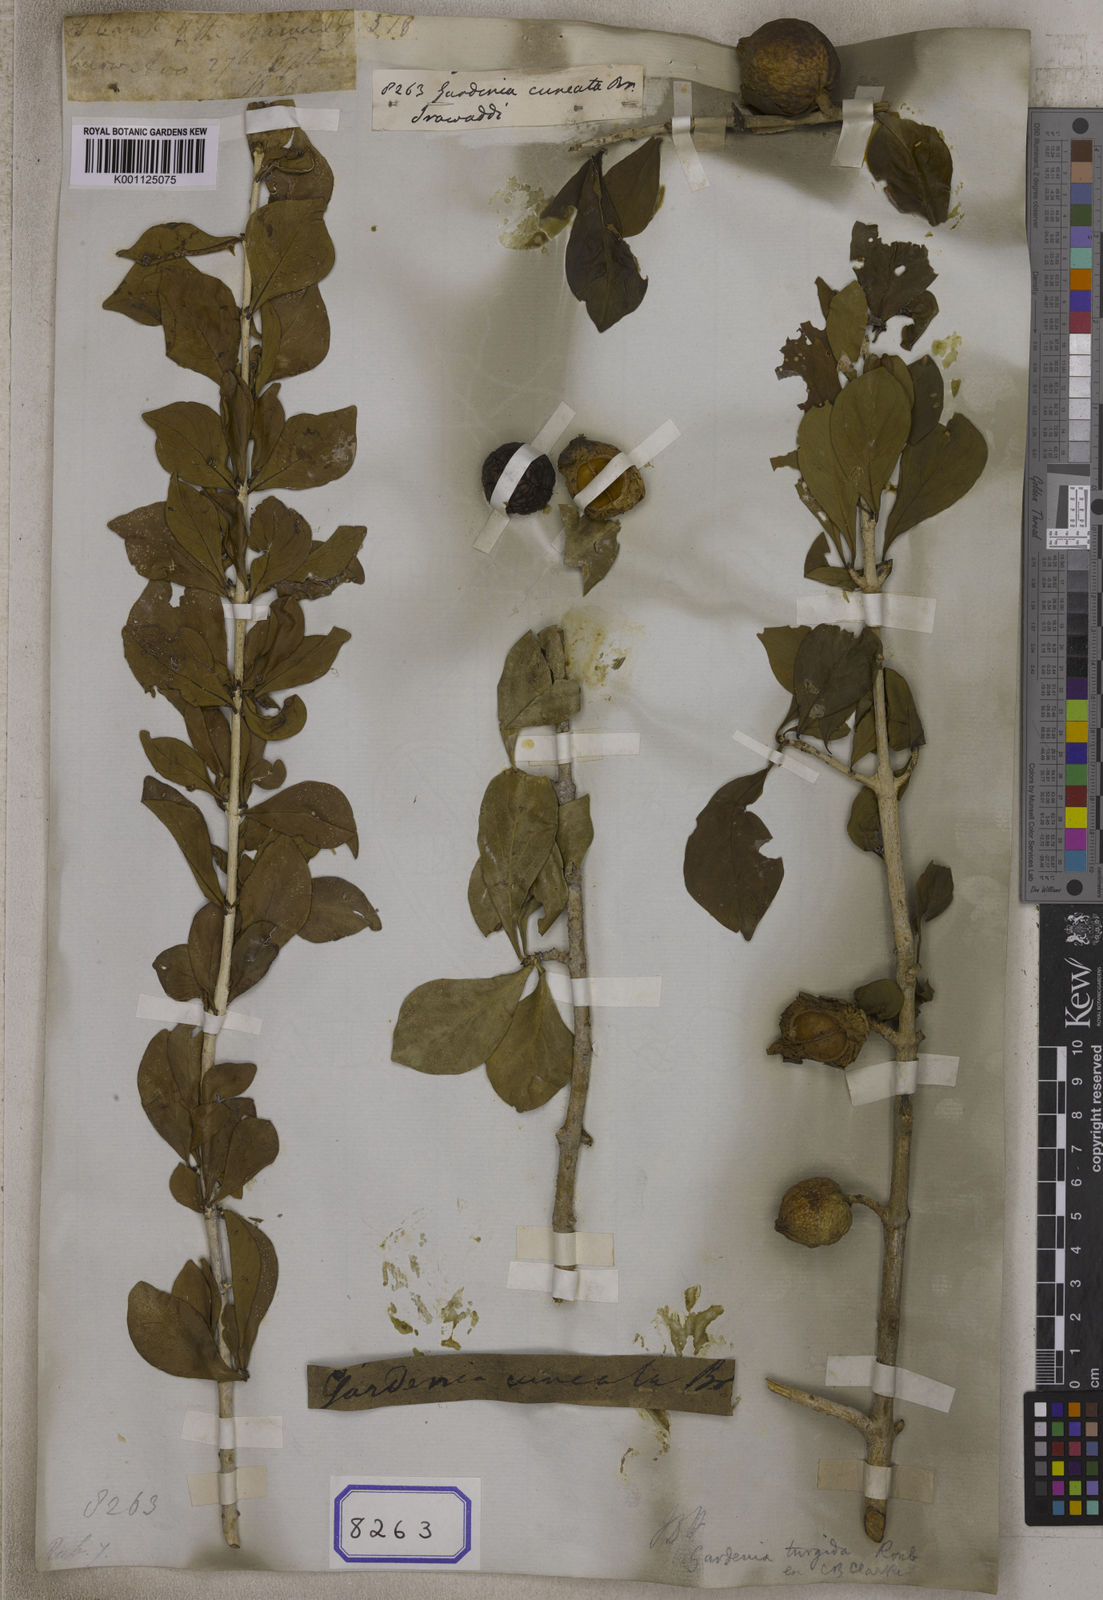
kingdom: Plantae
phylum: Tracheophyta
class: Magnoliopsida
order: Gentianales
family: Rubiaceae
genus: Gardenia
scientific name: Gardenia
